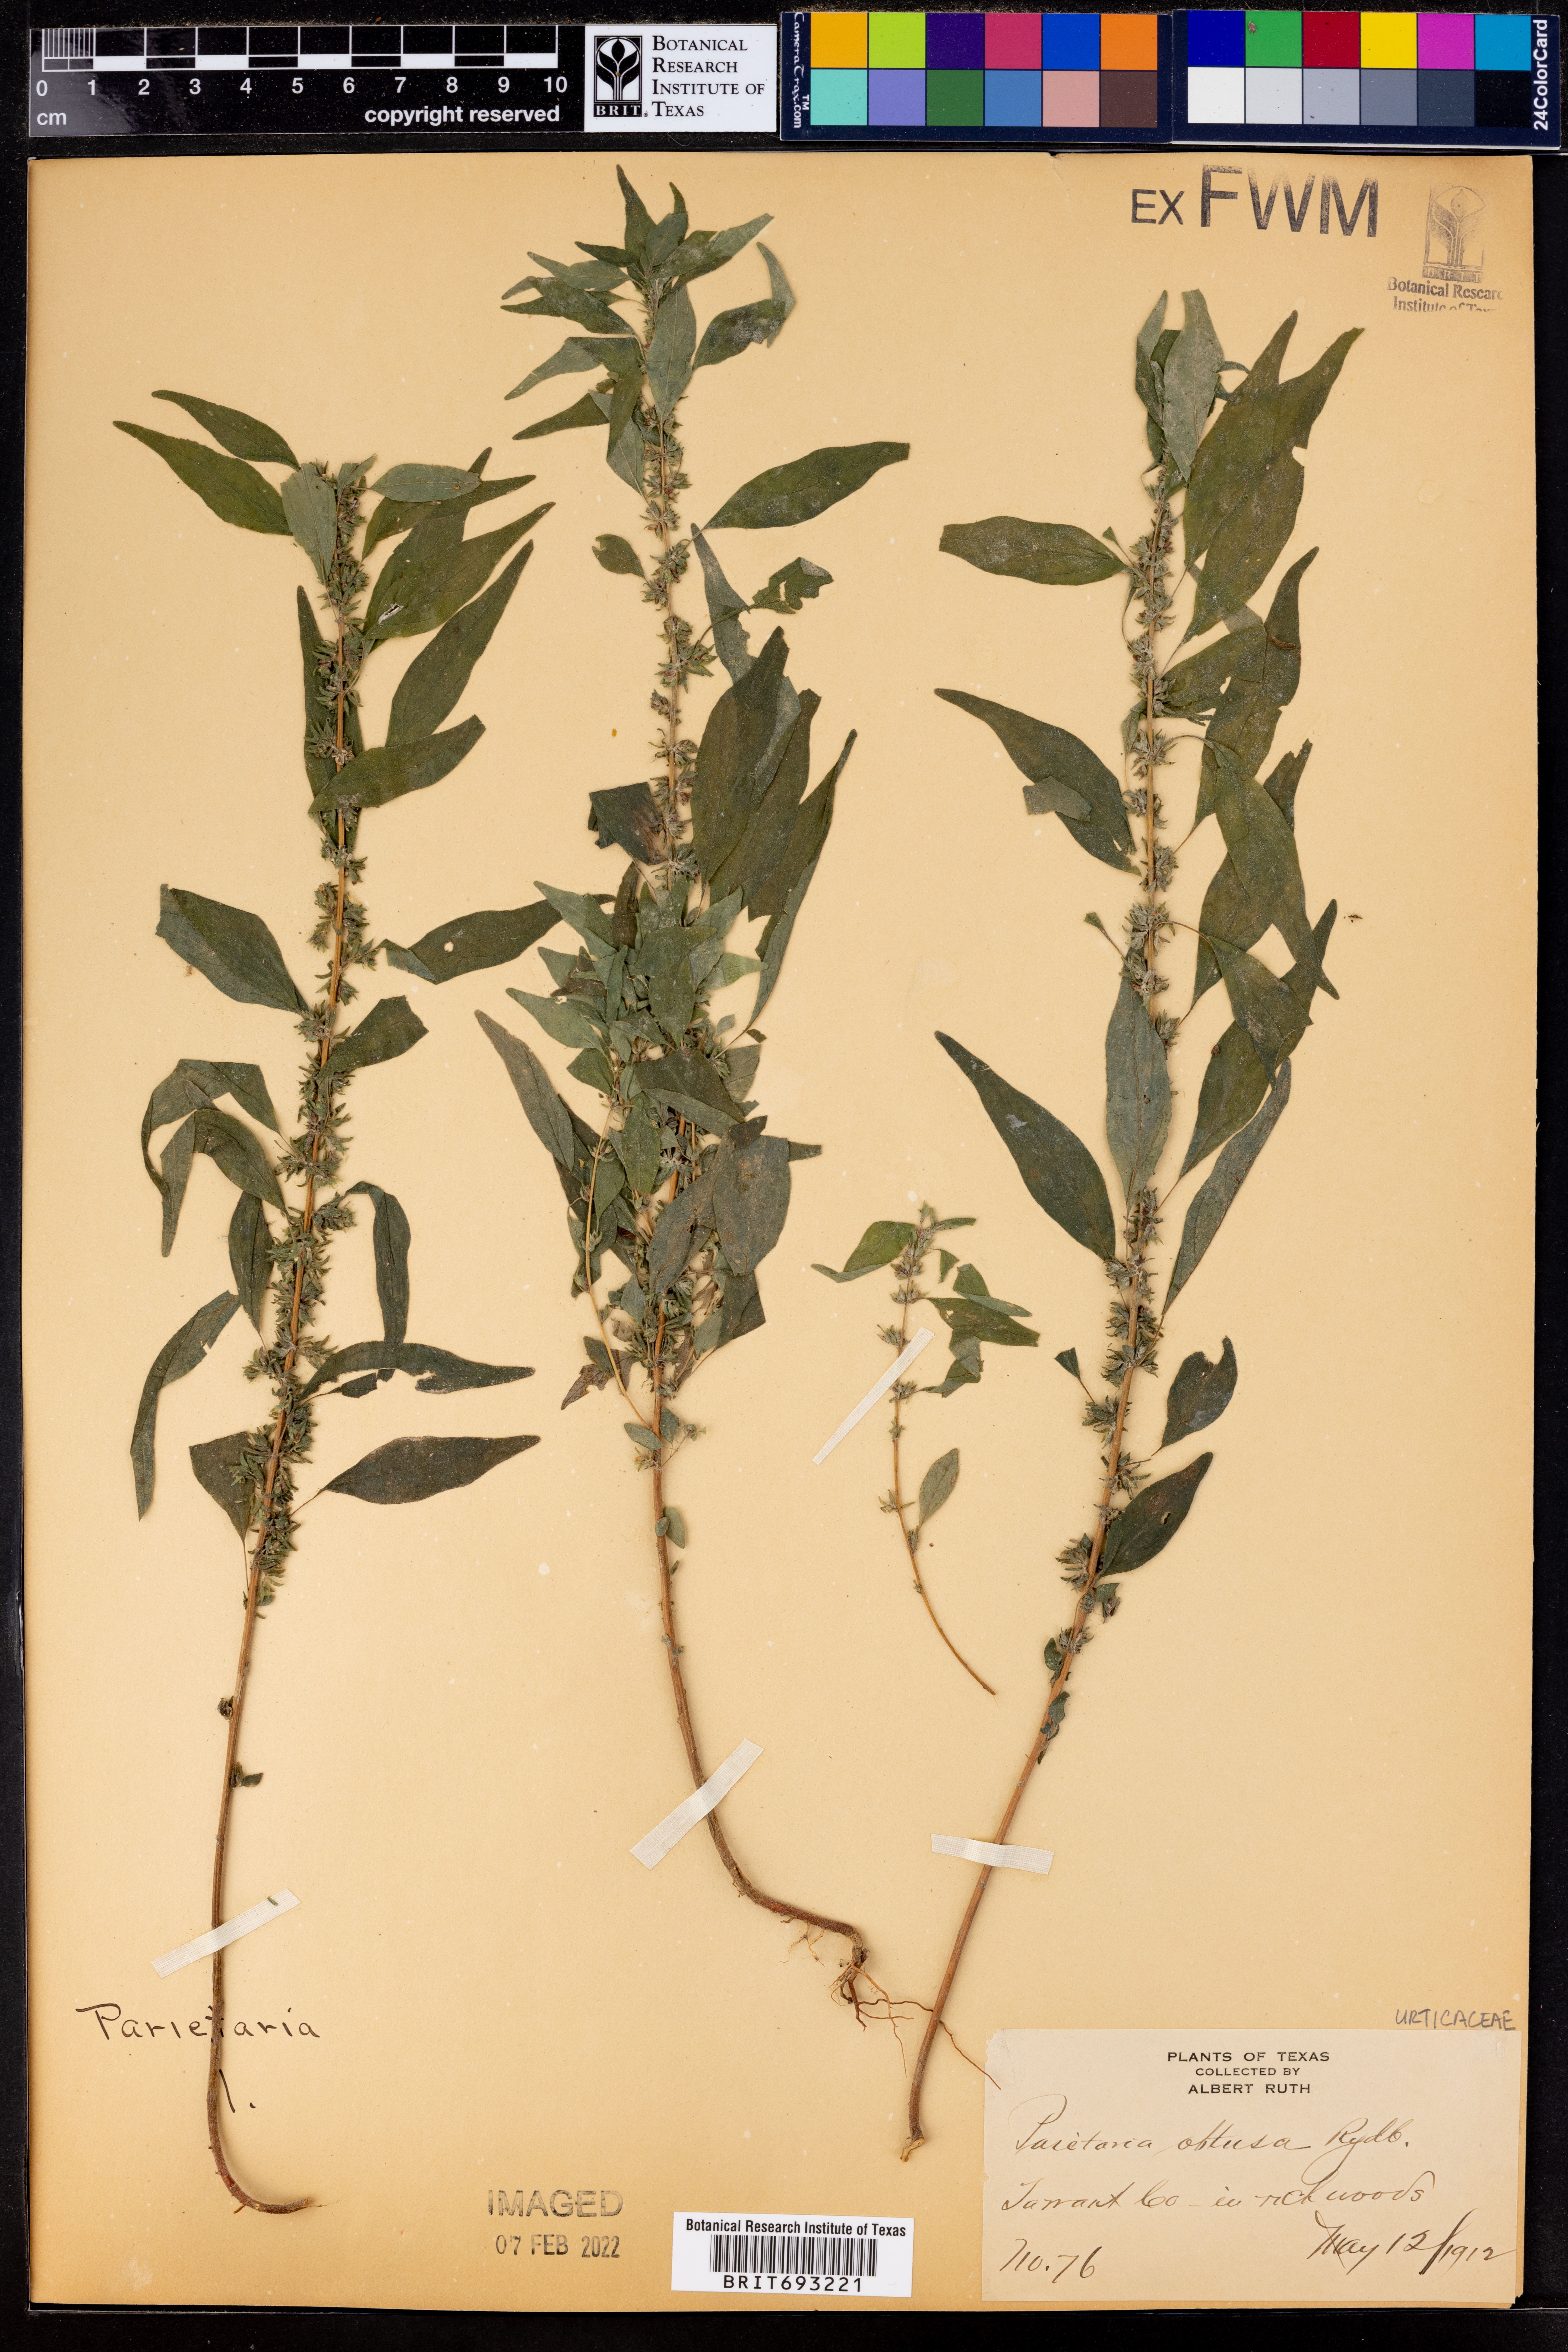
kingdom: Plantae
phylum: Tracheophyta
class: Magnoliopsida
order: Rosales
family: Urticaceae
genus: Parietaria
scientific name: Parietaria pensylvanica
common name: Pennsylvania pellitory
